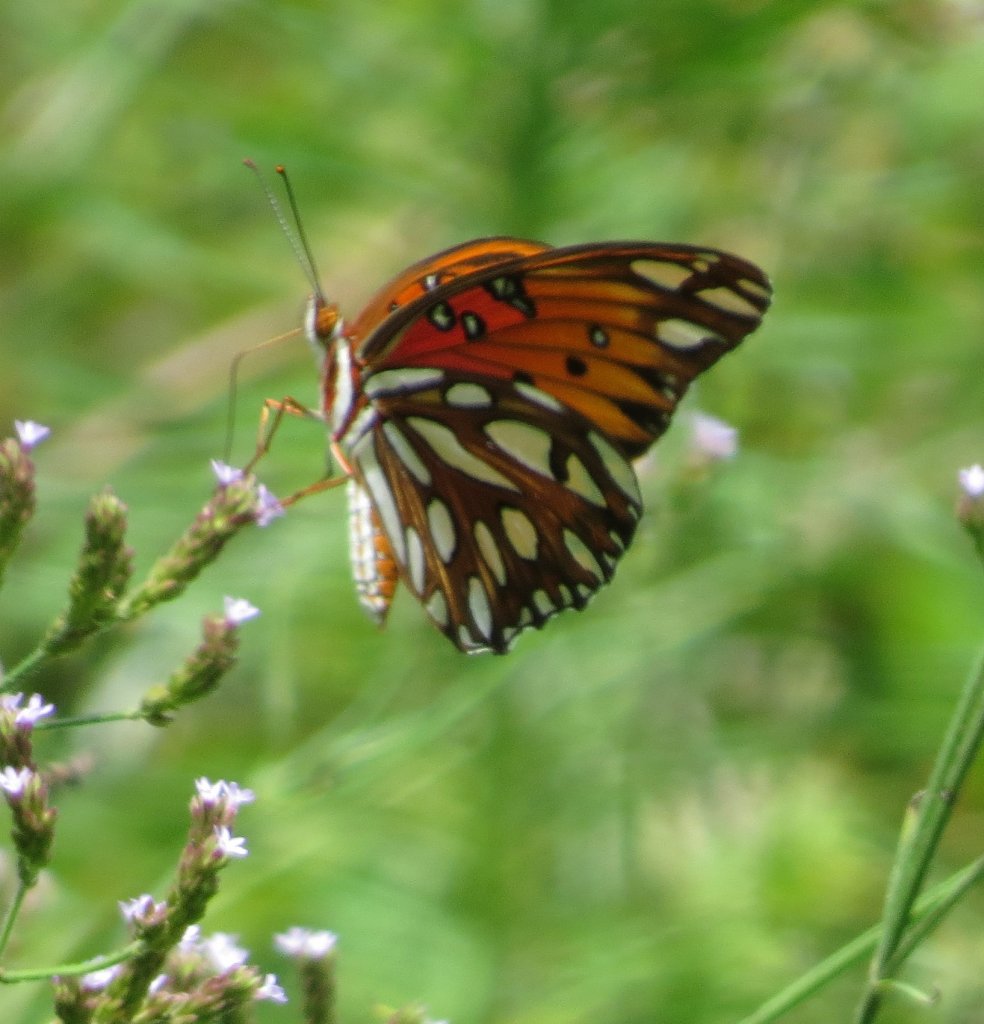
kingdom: Animalia
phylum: Arthropoda
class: Insecta
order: Lepidoptera
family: Nymphalidae
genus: Dione
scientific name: Dione vanillae
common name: Gulf Fritillary
